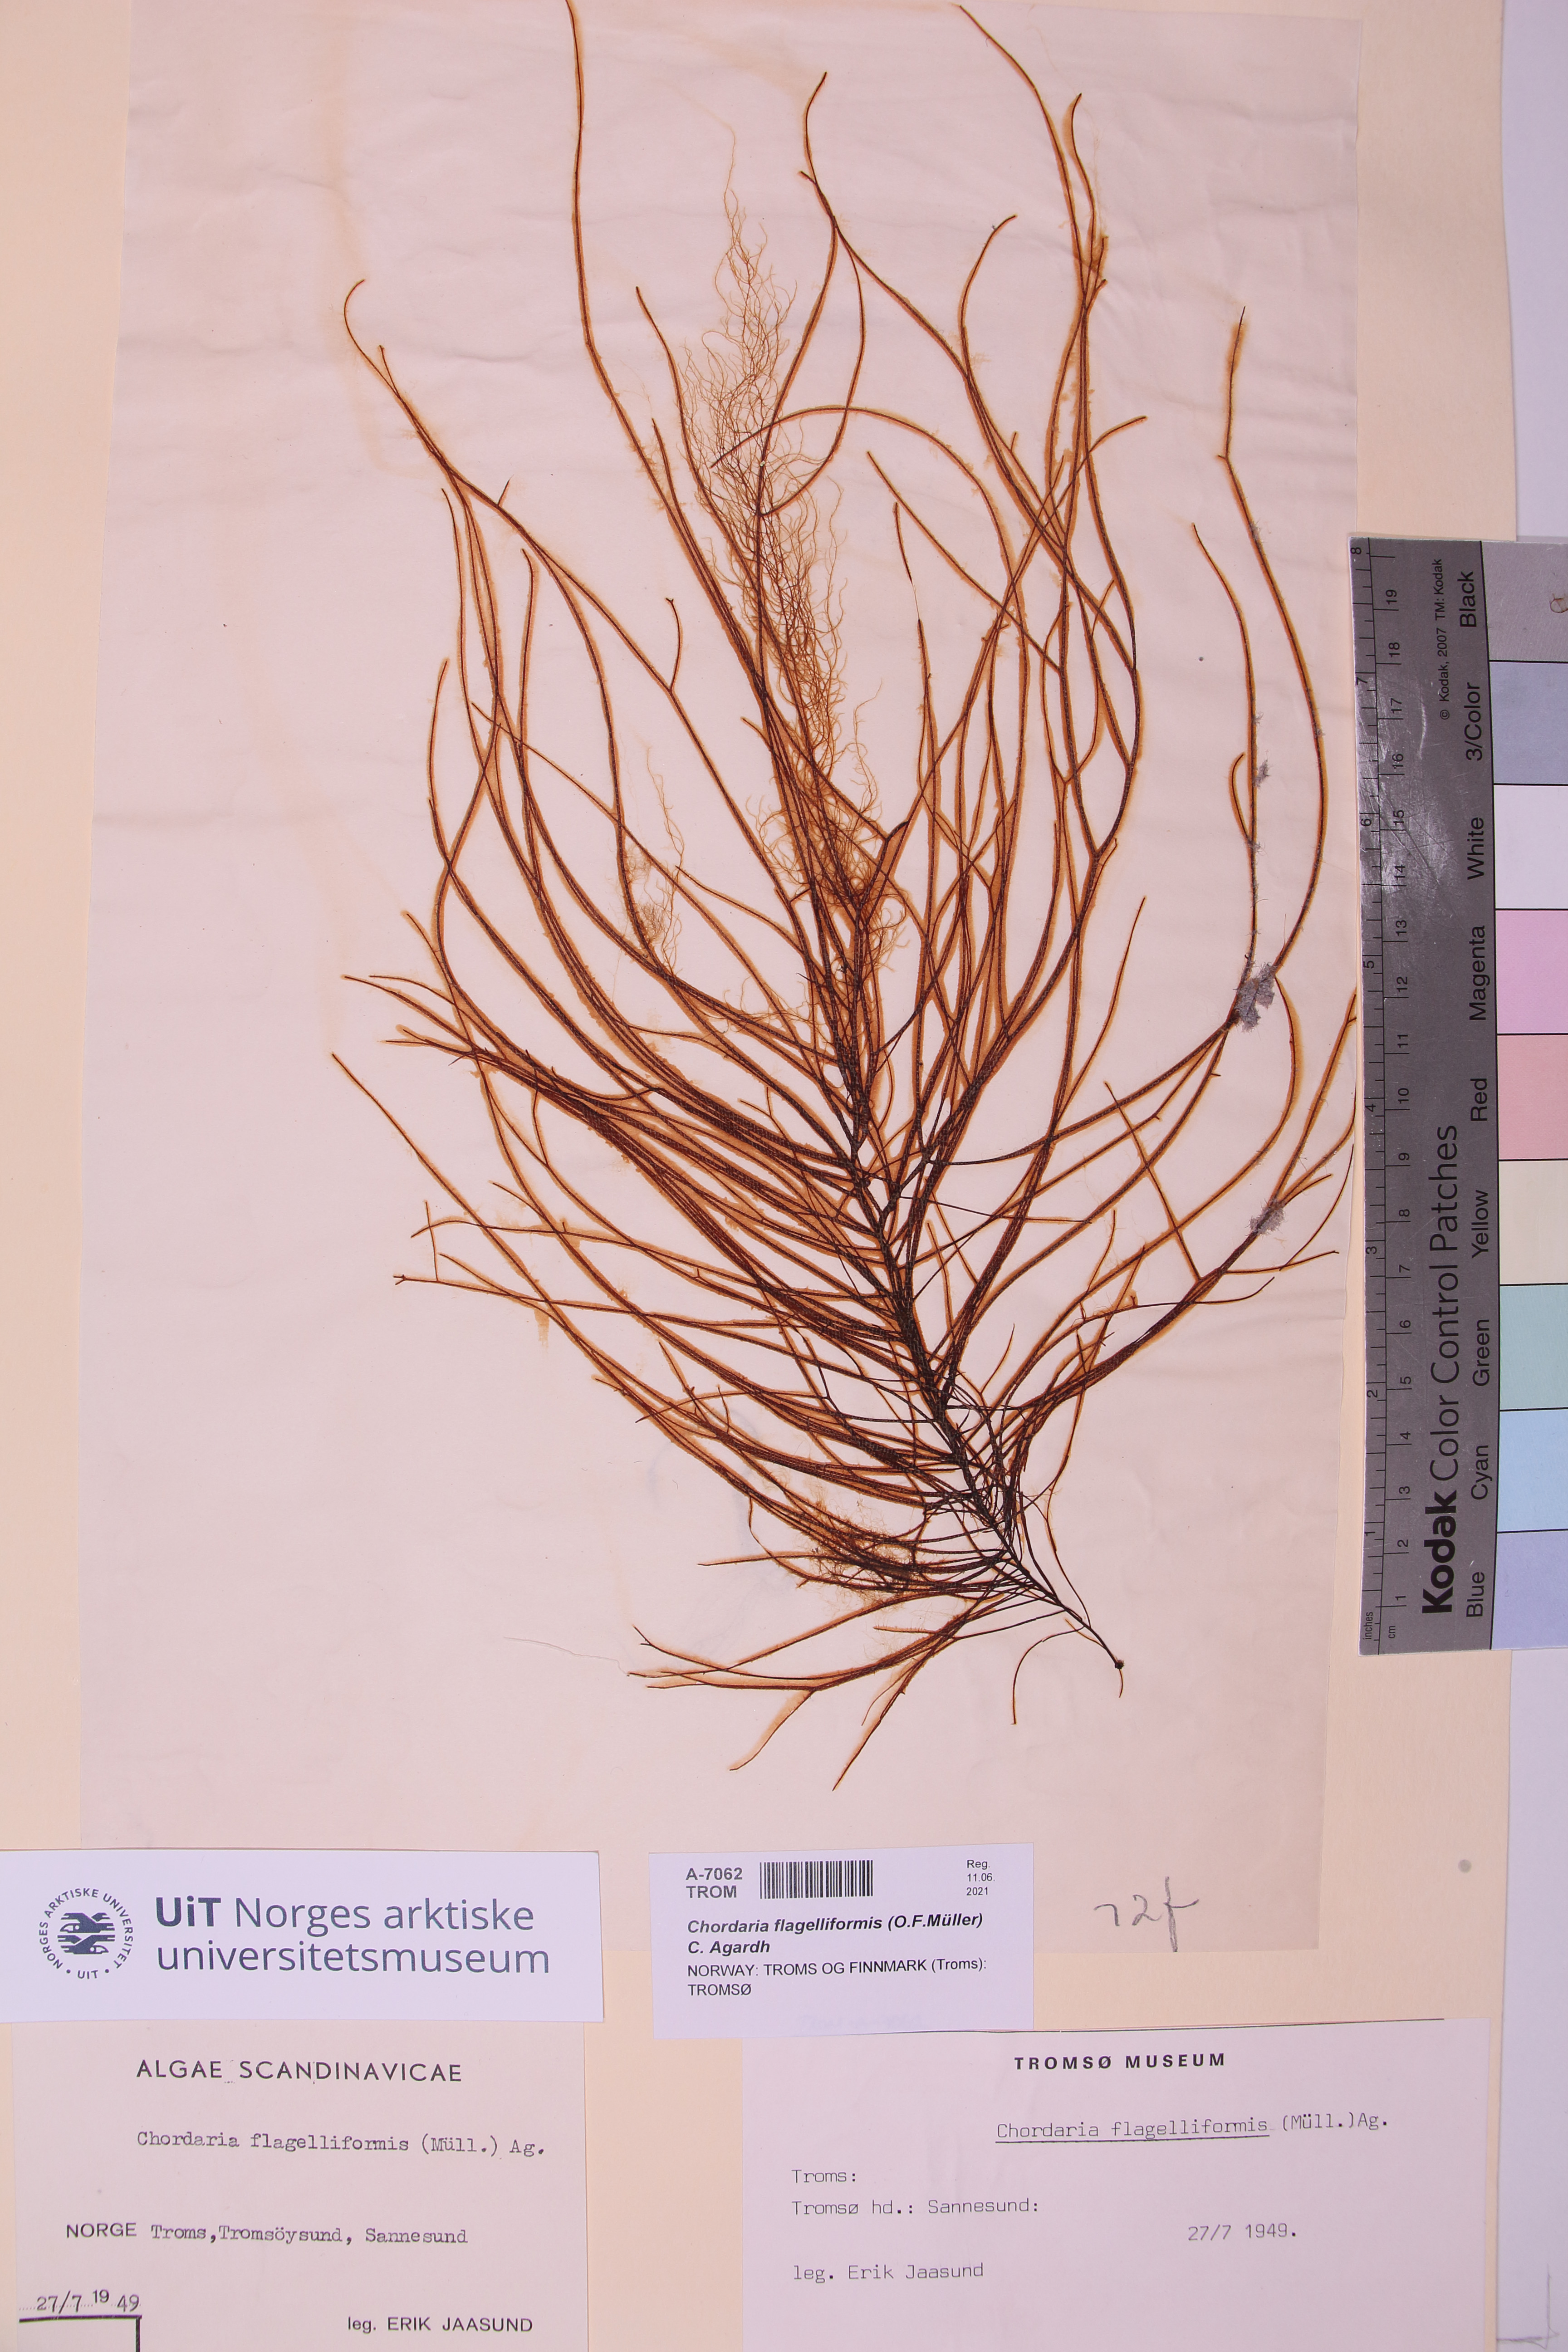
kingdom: Chromista
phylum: Ochrophyta
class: Phaeophyceae
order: Ectocarpales
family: Chordariaceae
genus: Chordaria
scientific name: Chordaria flagelliformis
